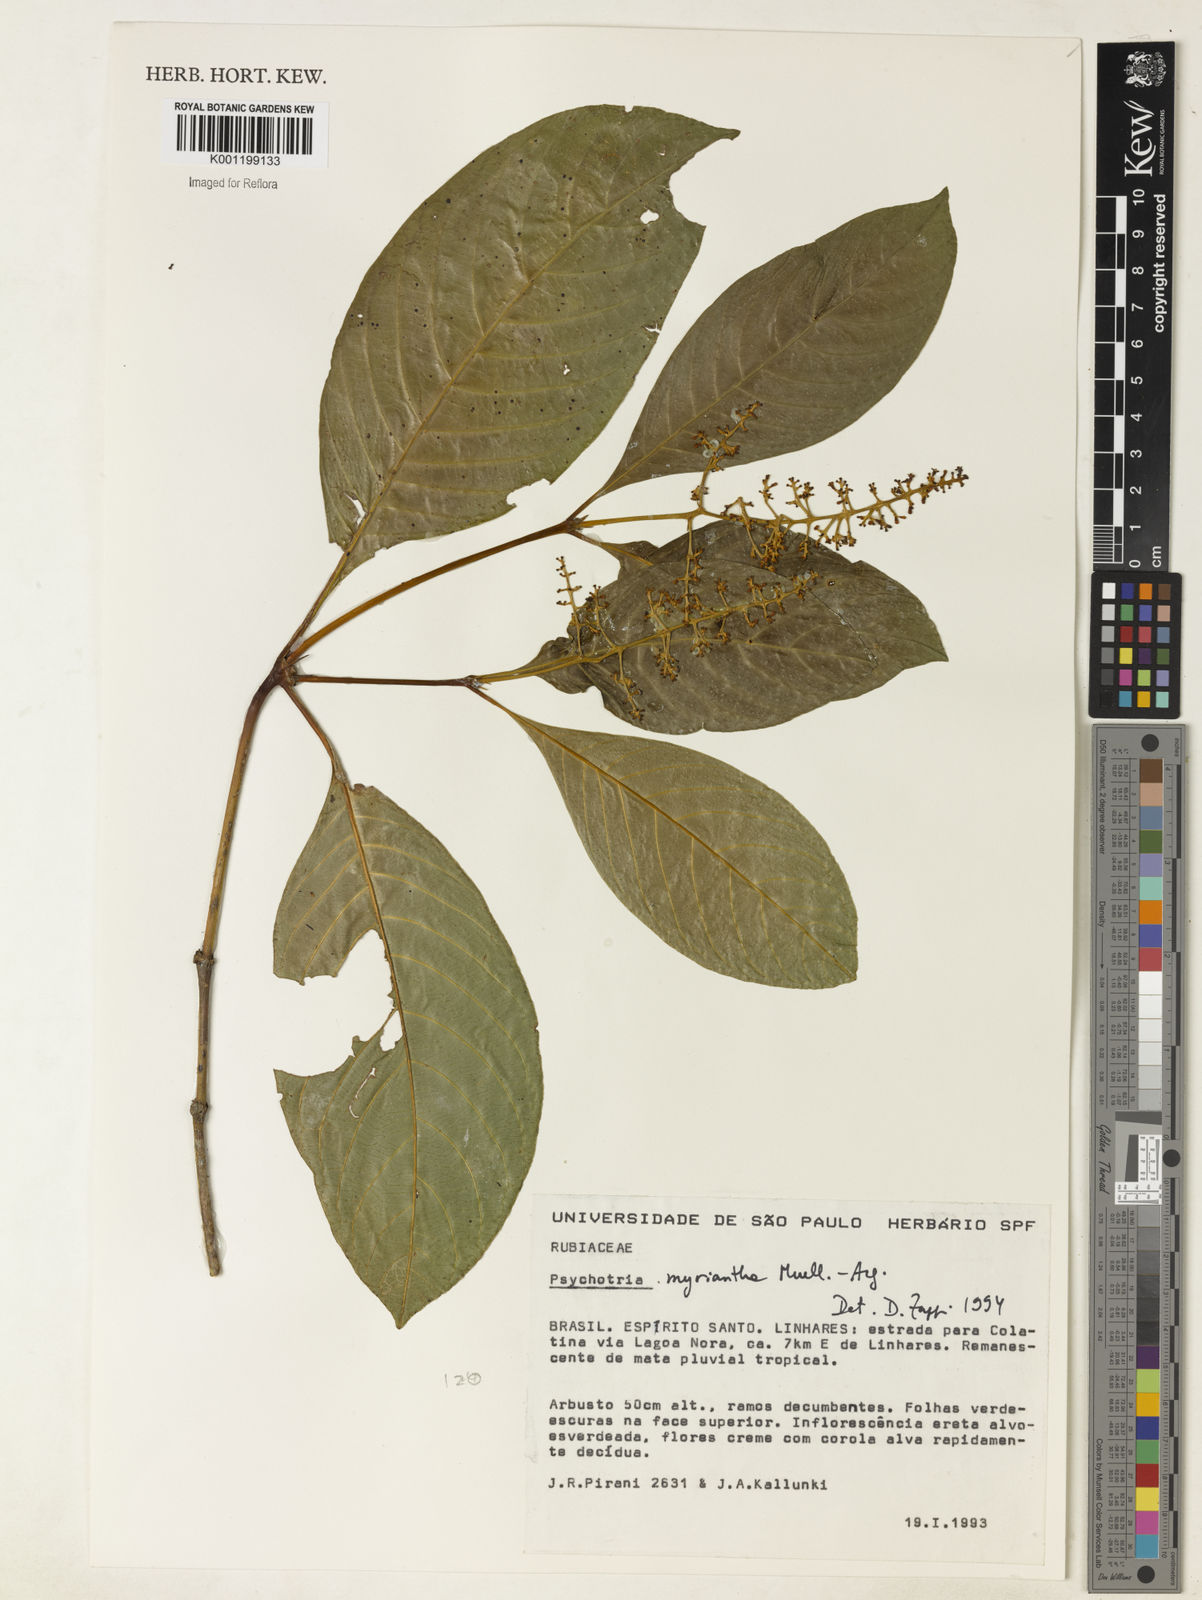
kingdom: Plantae
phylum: Tracheophyta
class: Magnoliopsida
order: Gentianales
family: Rubiaceae
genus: Psychotria
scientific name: Psychotria
